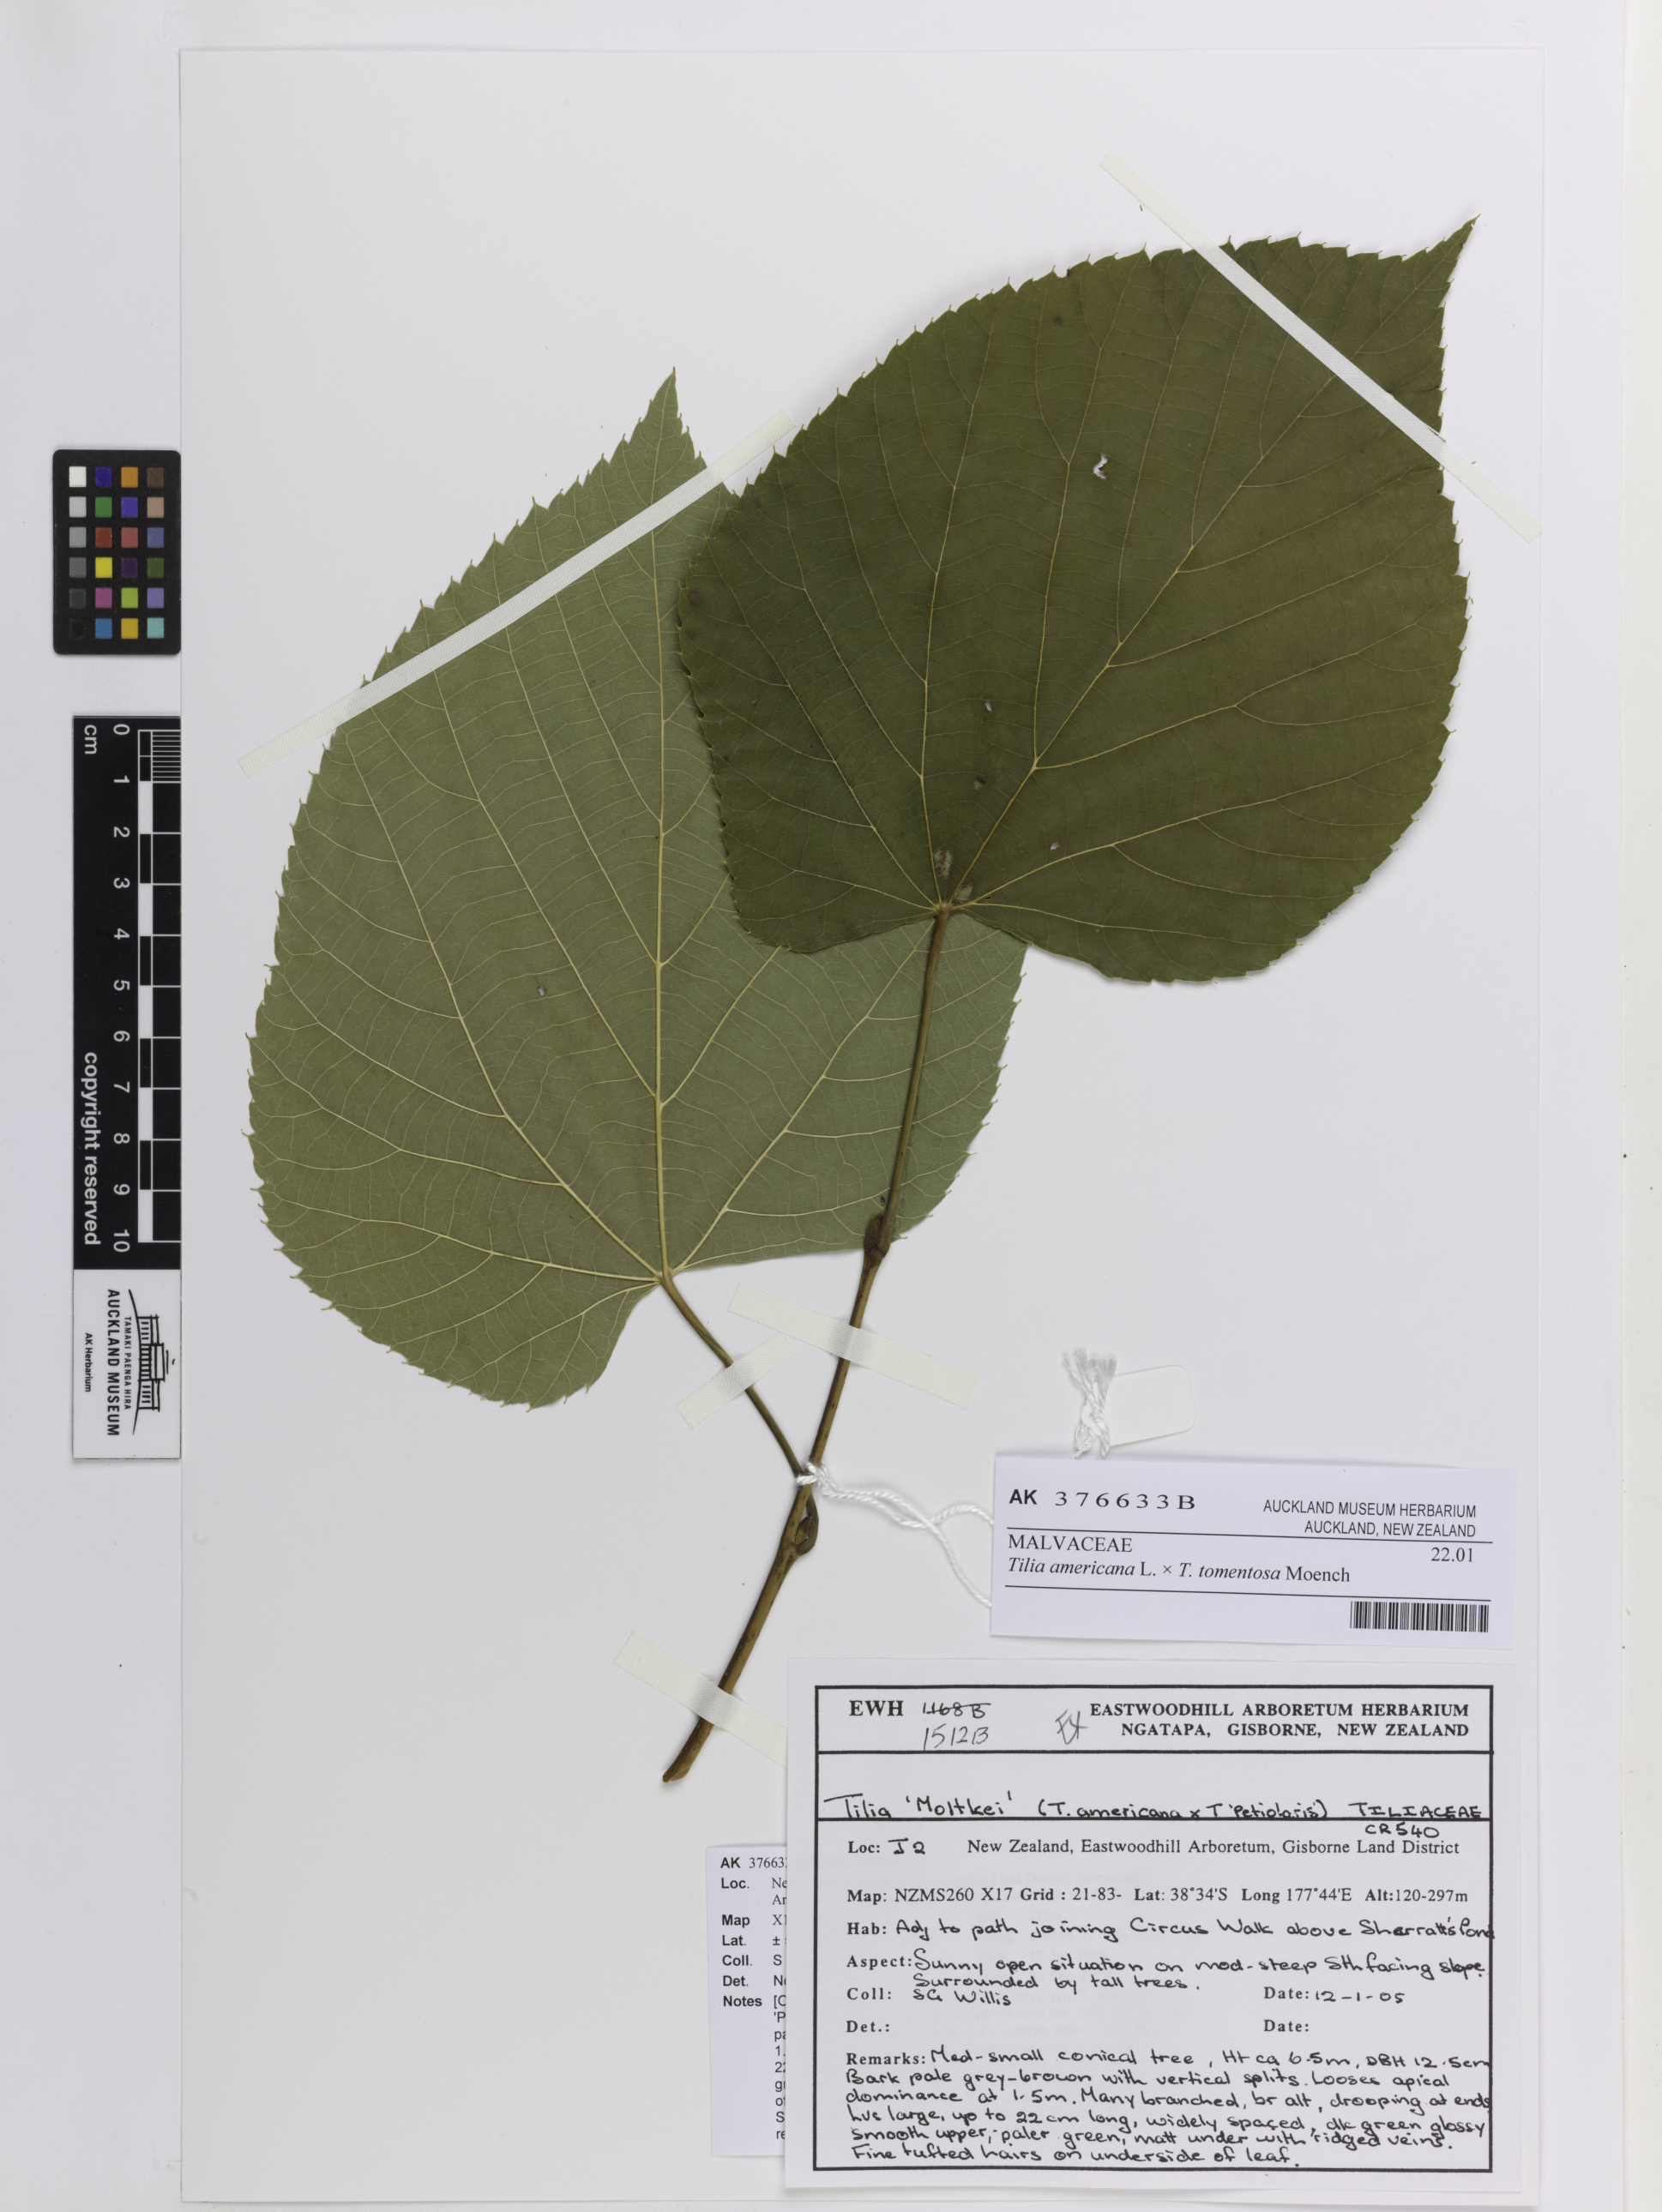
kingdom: Plantae
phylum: Tracheophyta
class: Magnoliopsida
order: Malvales
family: Malvaceae
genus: Tilia
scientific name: Tilia
